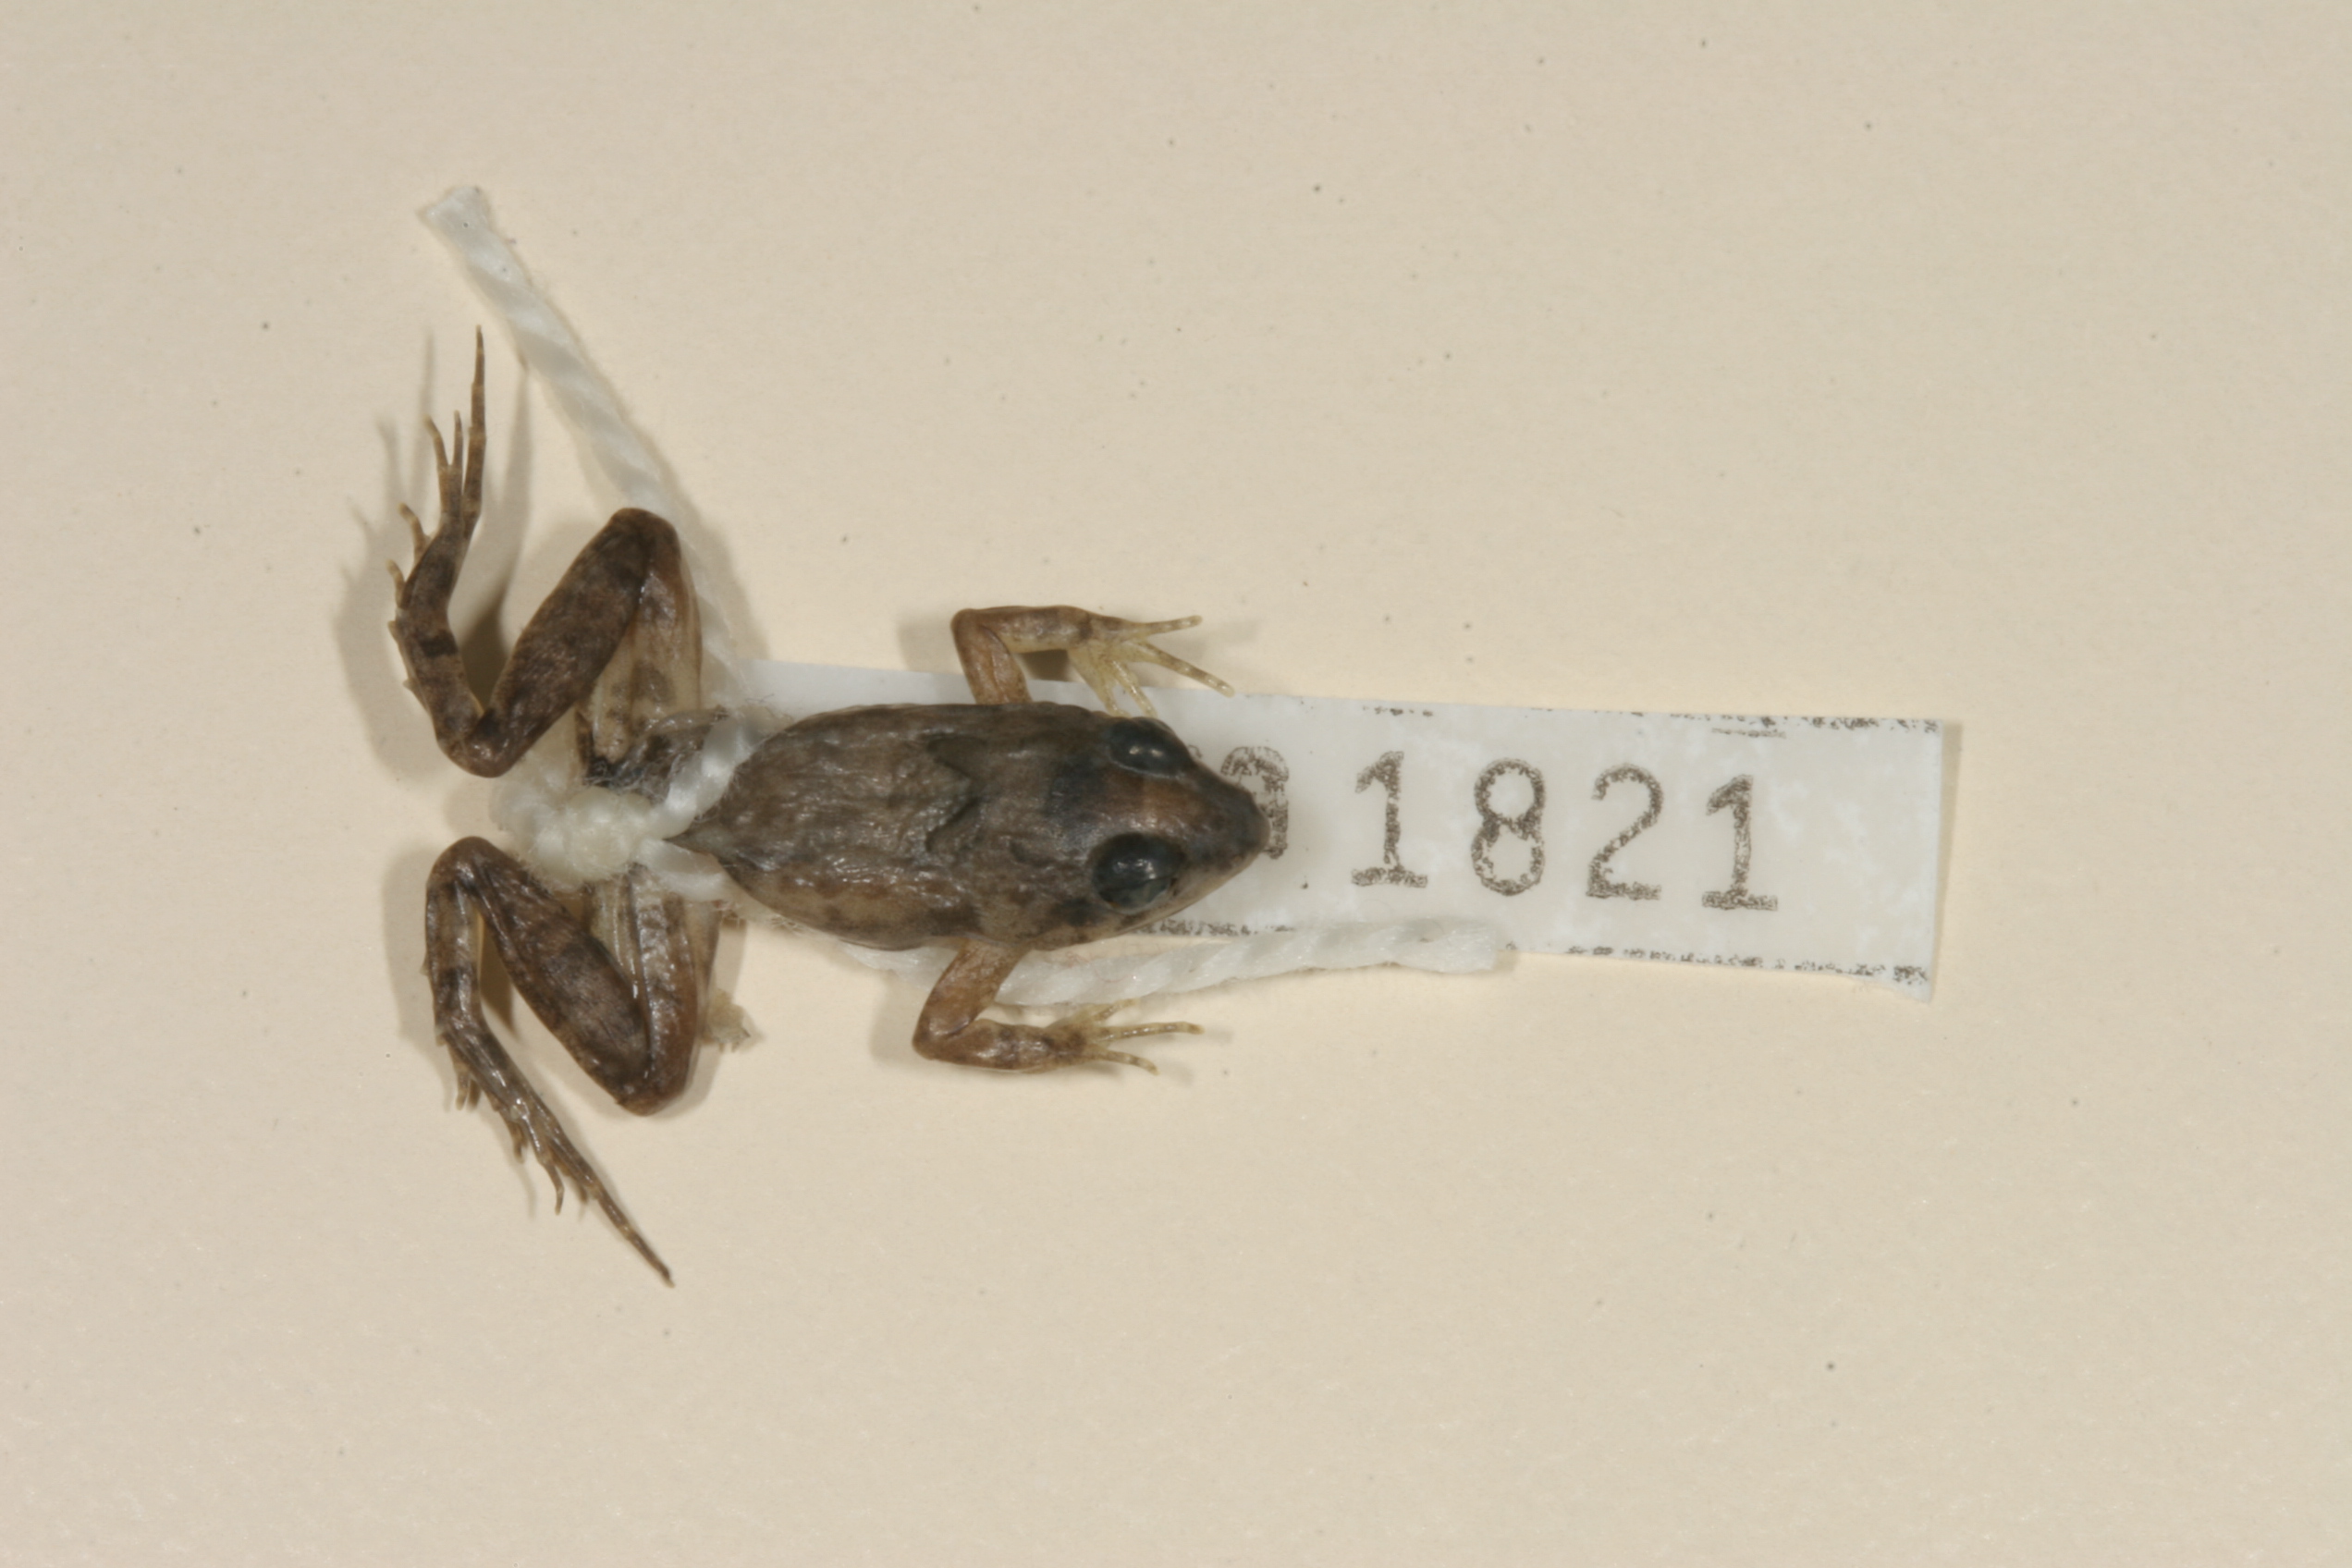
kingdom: Animalia
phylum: Chordata
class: Amphibia
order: Anura
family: Phrynobatrachidae
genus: Phrynobatrachus
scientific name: Phrynobatrachus mababiensis
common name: Dwarf puddle frog
